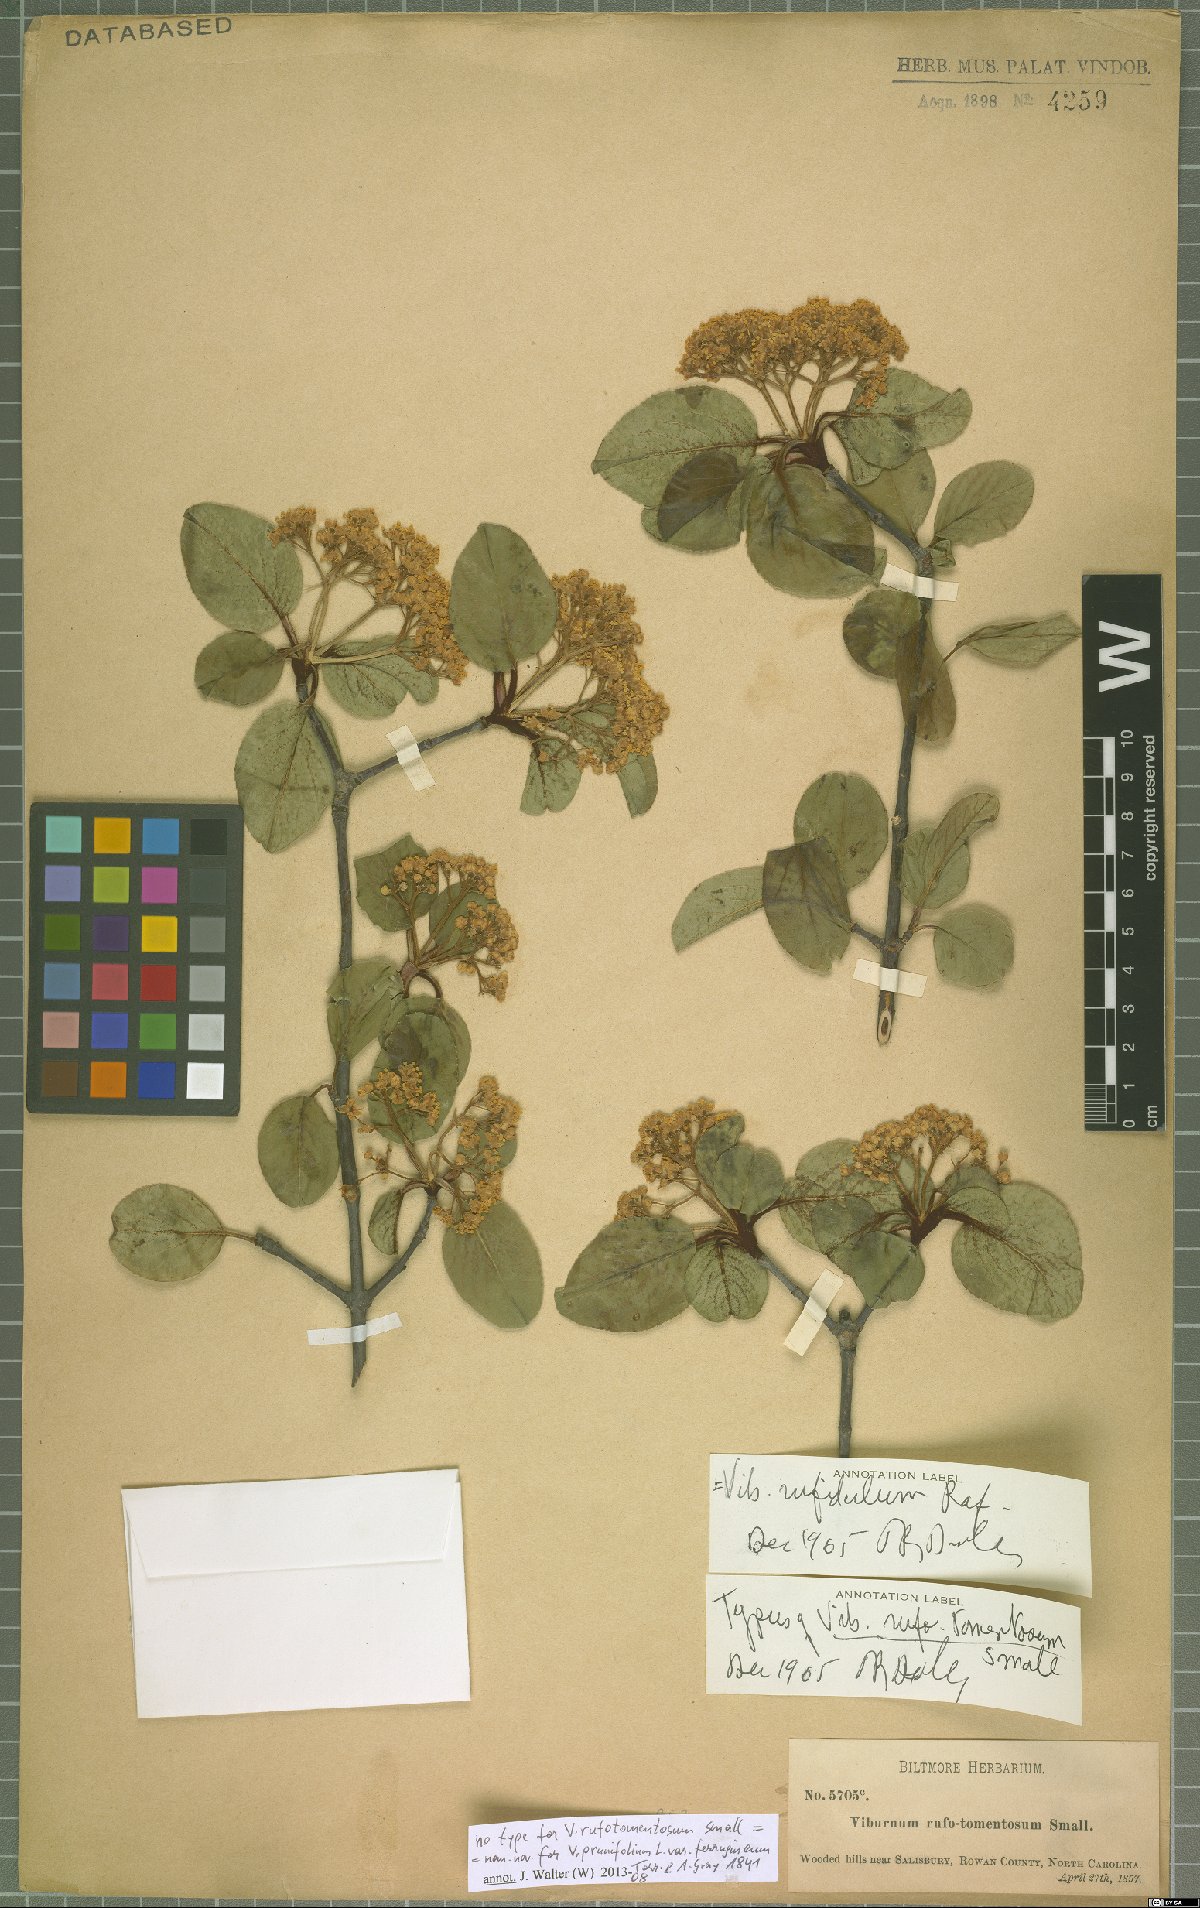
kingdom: Plantae
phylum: Tracheophyta
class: Magnoliopsida
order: Dipsacales
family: Viburnaceae
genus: Viburnum
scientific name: Viburnum rufidulum
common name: Blue haw
